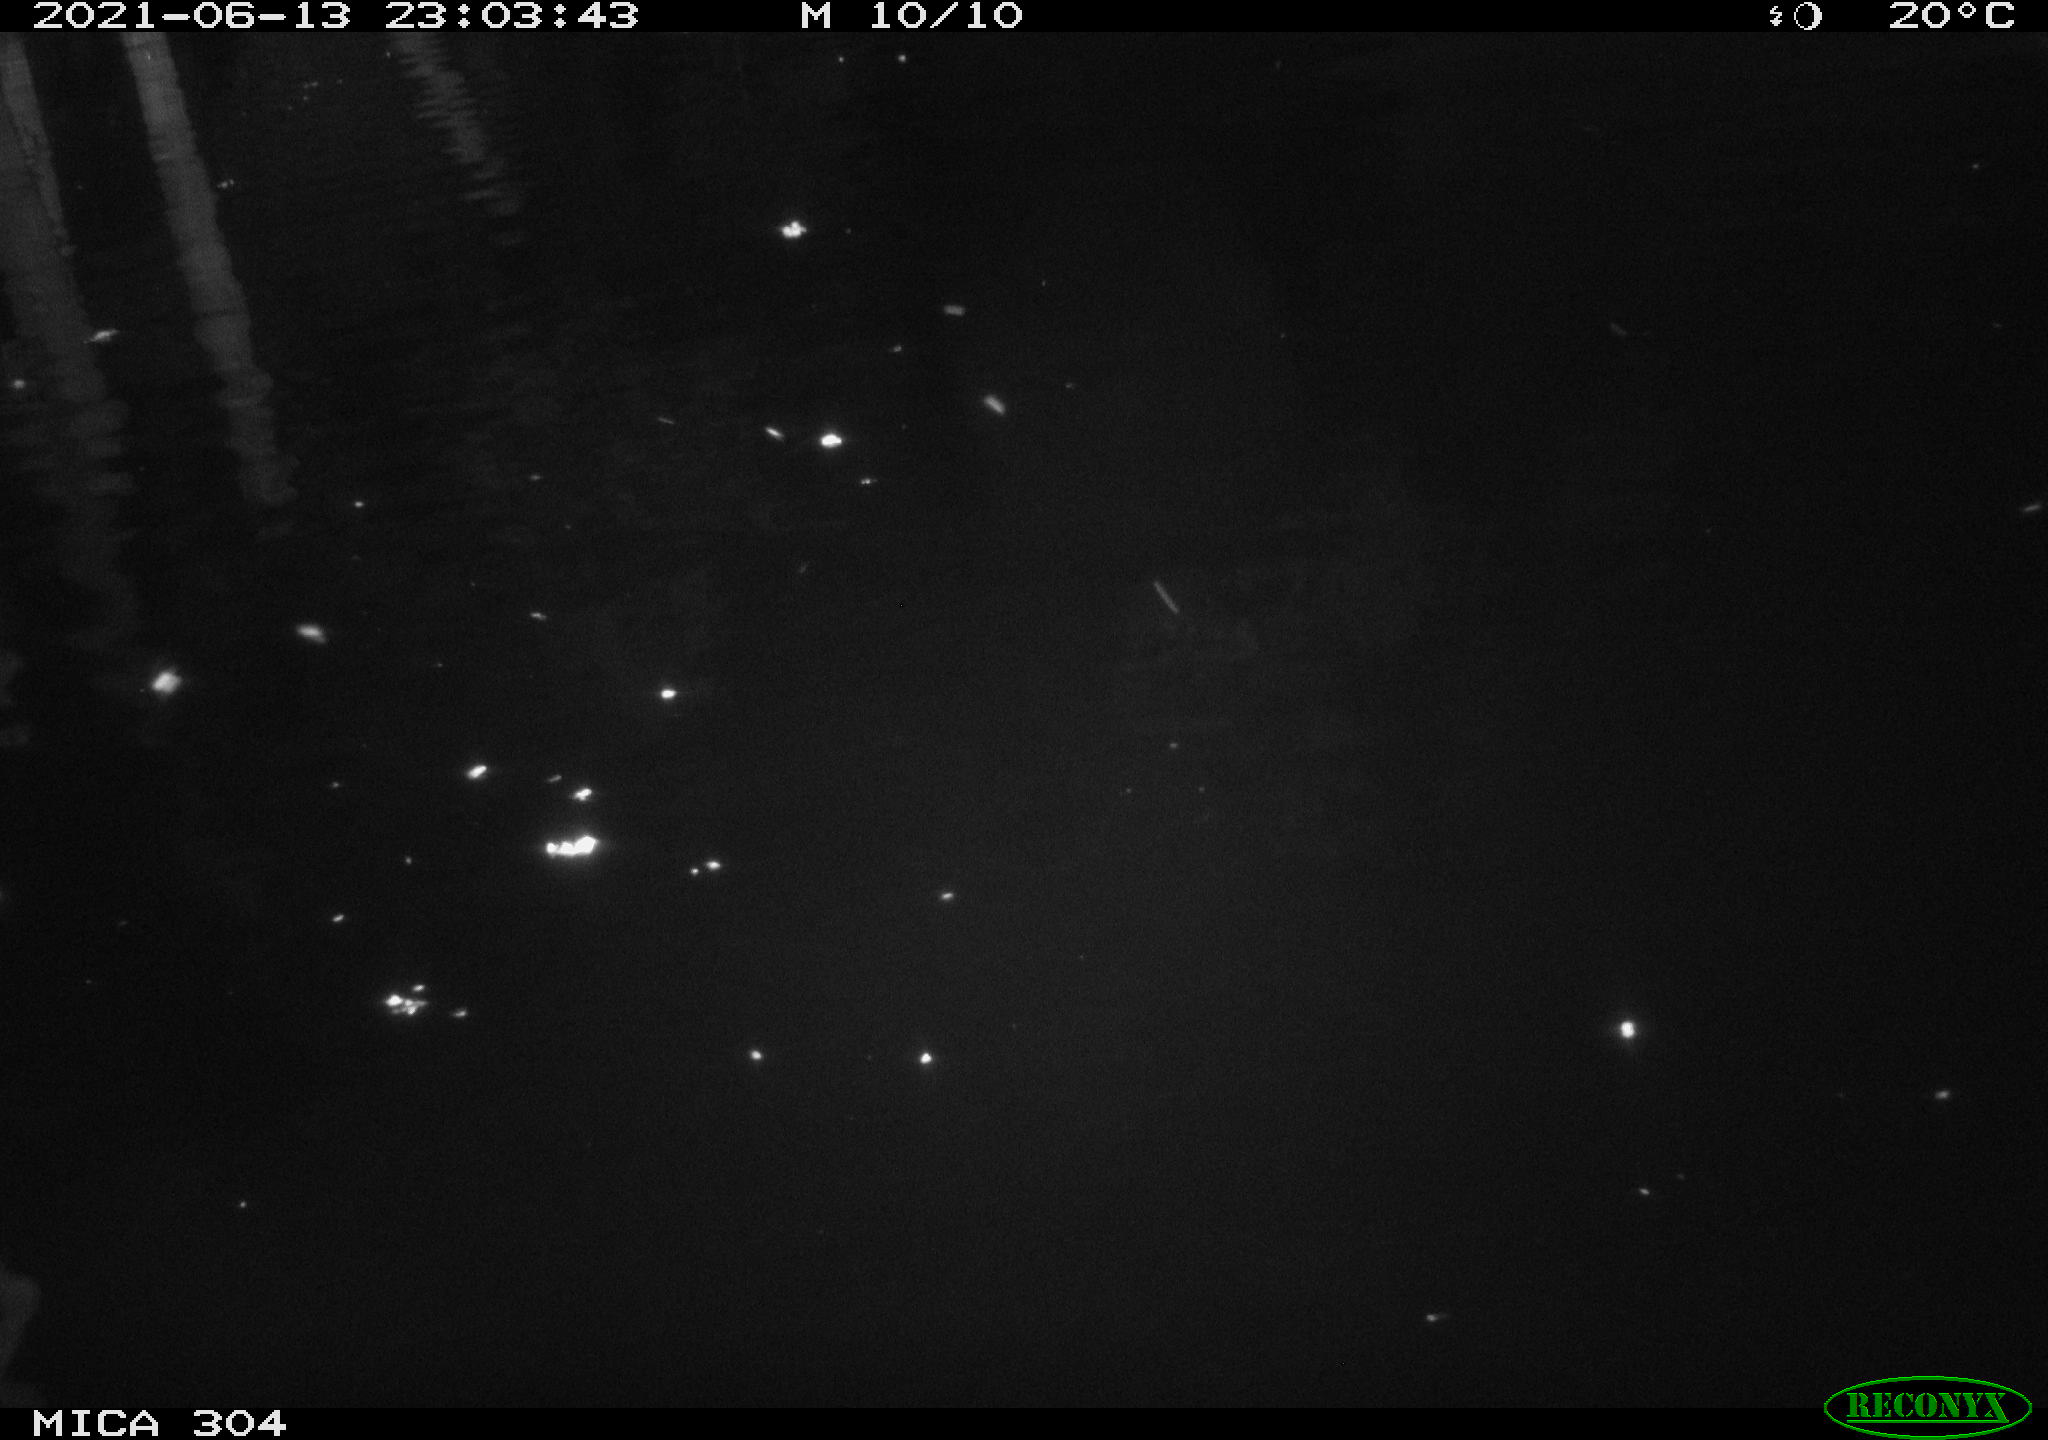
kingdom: Animalia
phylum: Chordata
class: Aves
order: Anseriformes
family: Anatidae
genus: Anas
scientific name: Anas platyrhynchos
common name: Mallard
